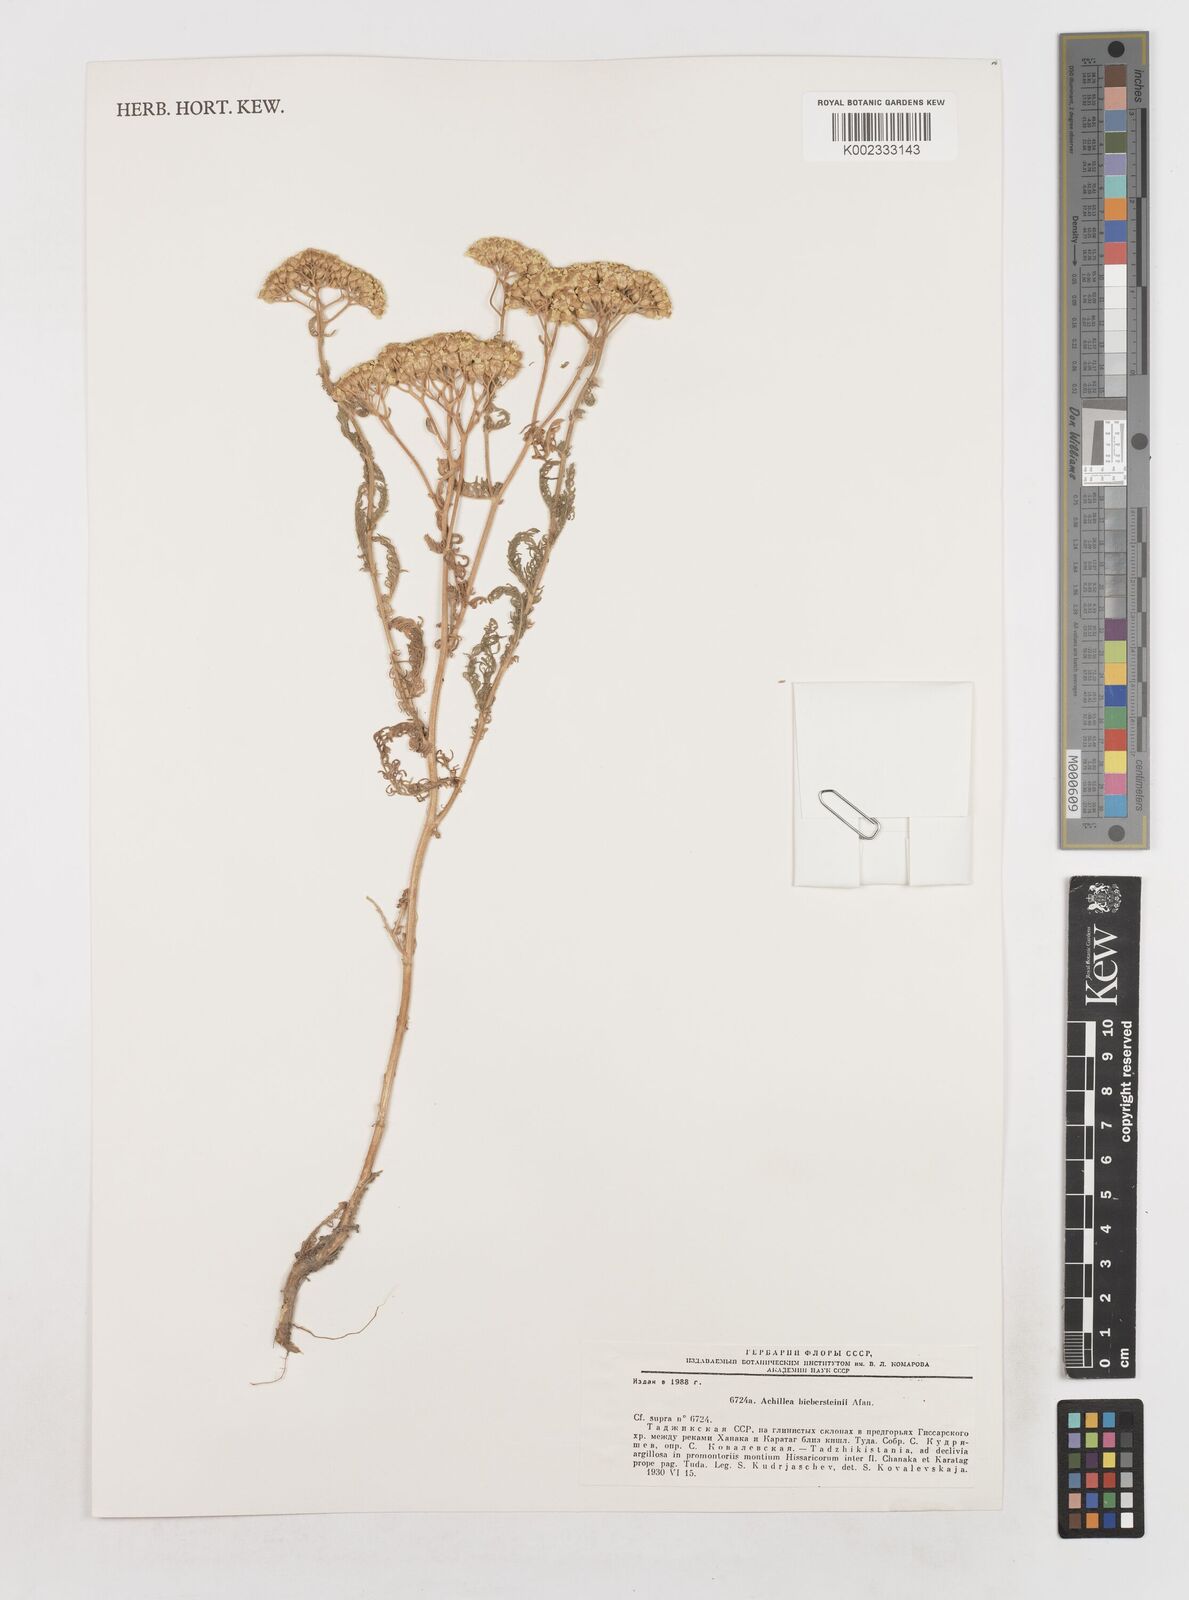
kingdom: Plantae
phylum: Tracheophyta
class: Magnoliopsida
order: Asterales
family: Asteraceae
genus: Achillea
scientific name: Achillea arabica
